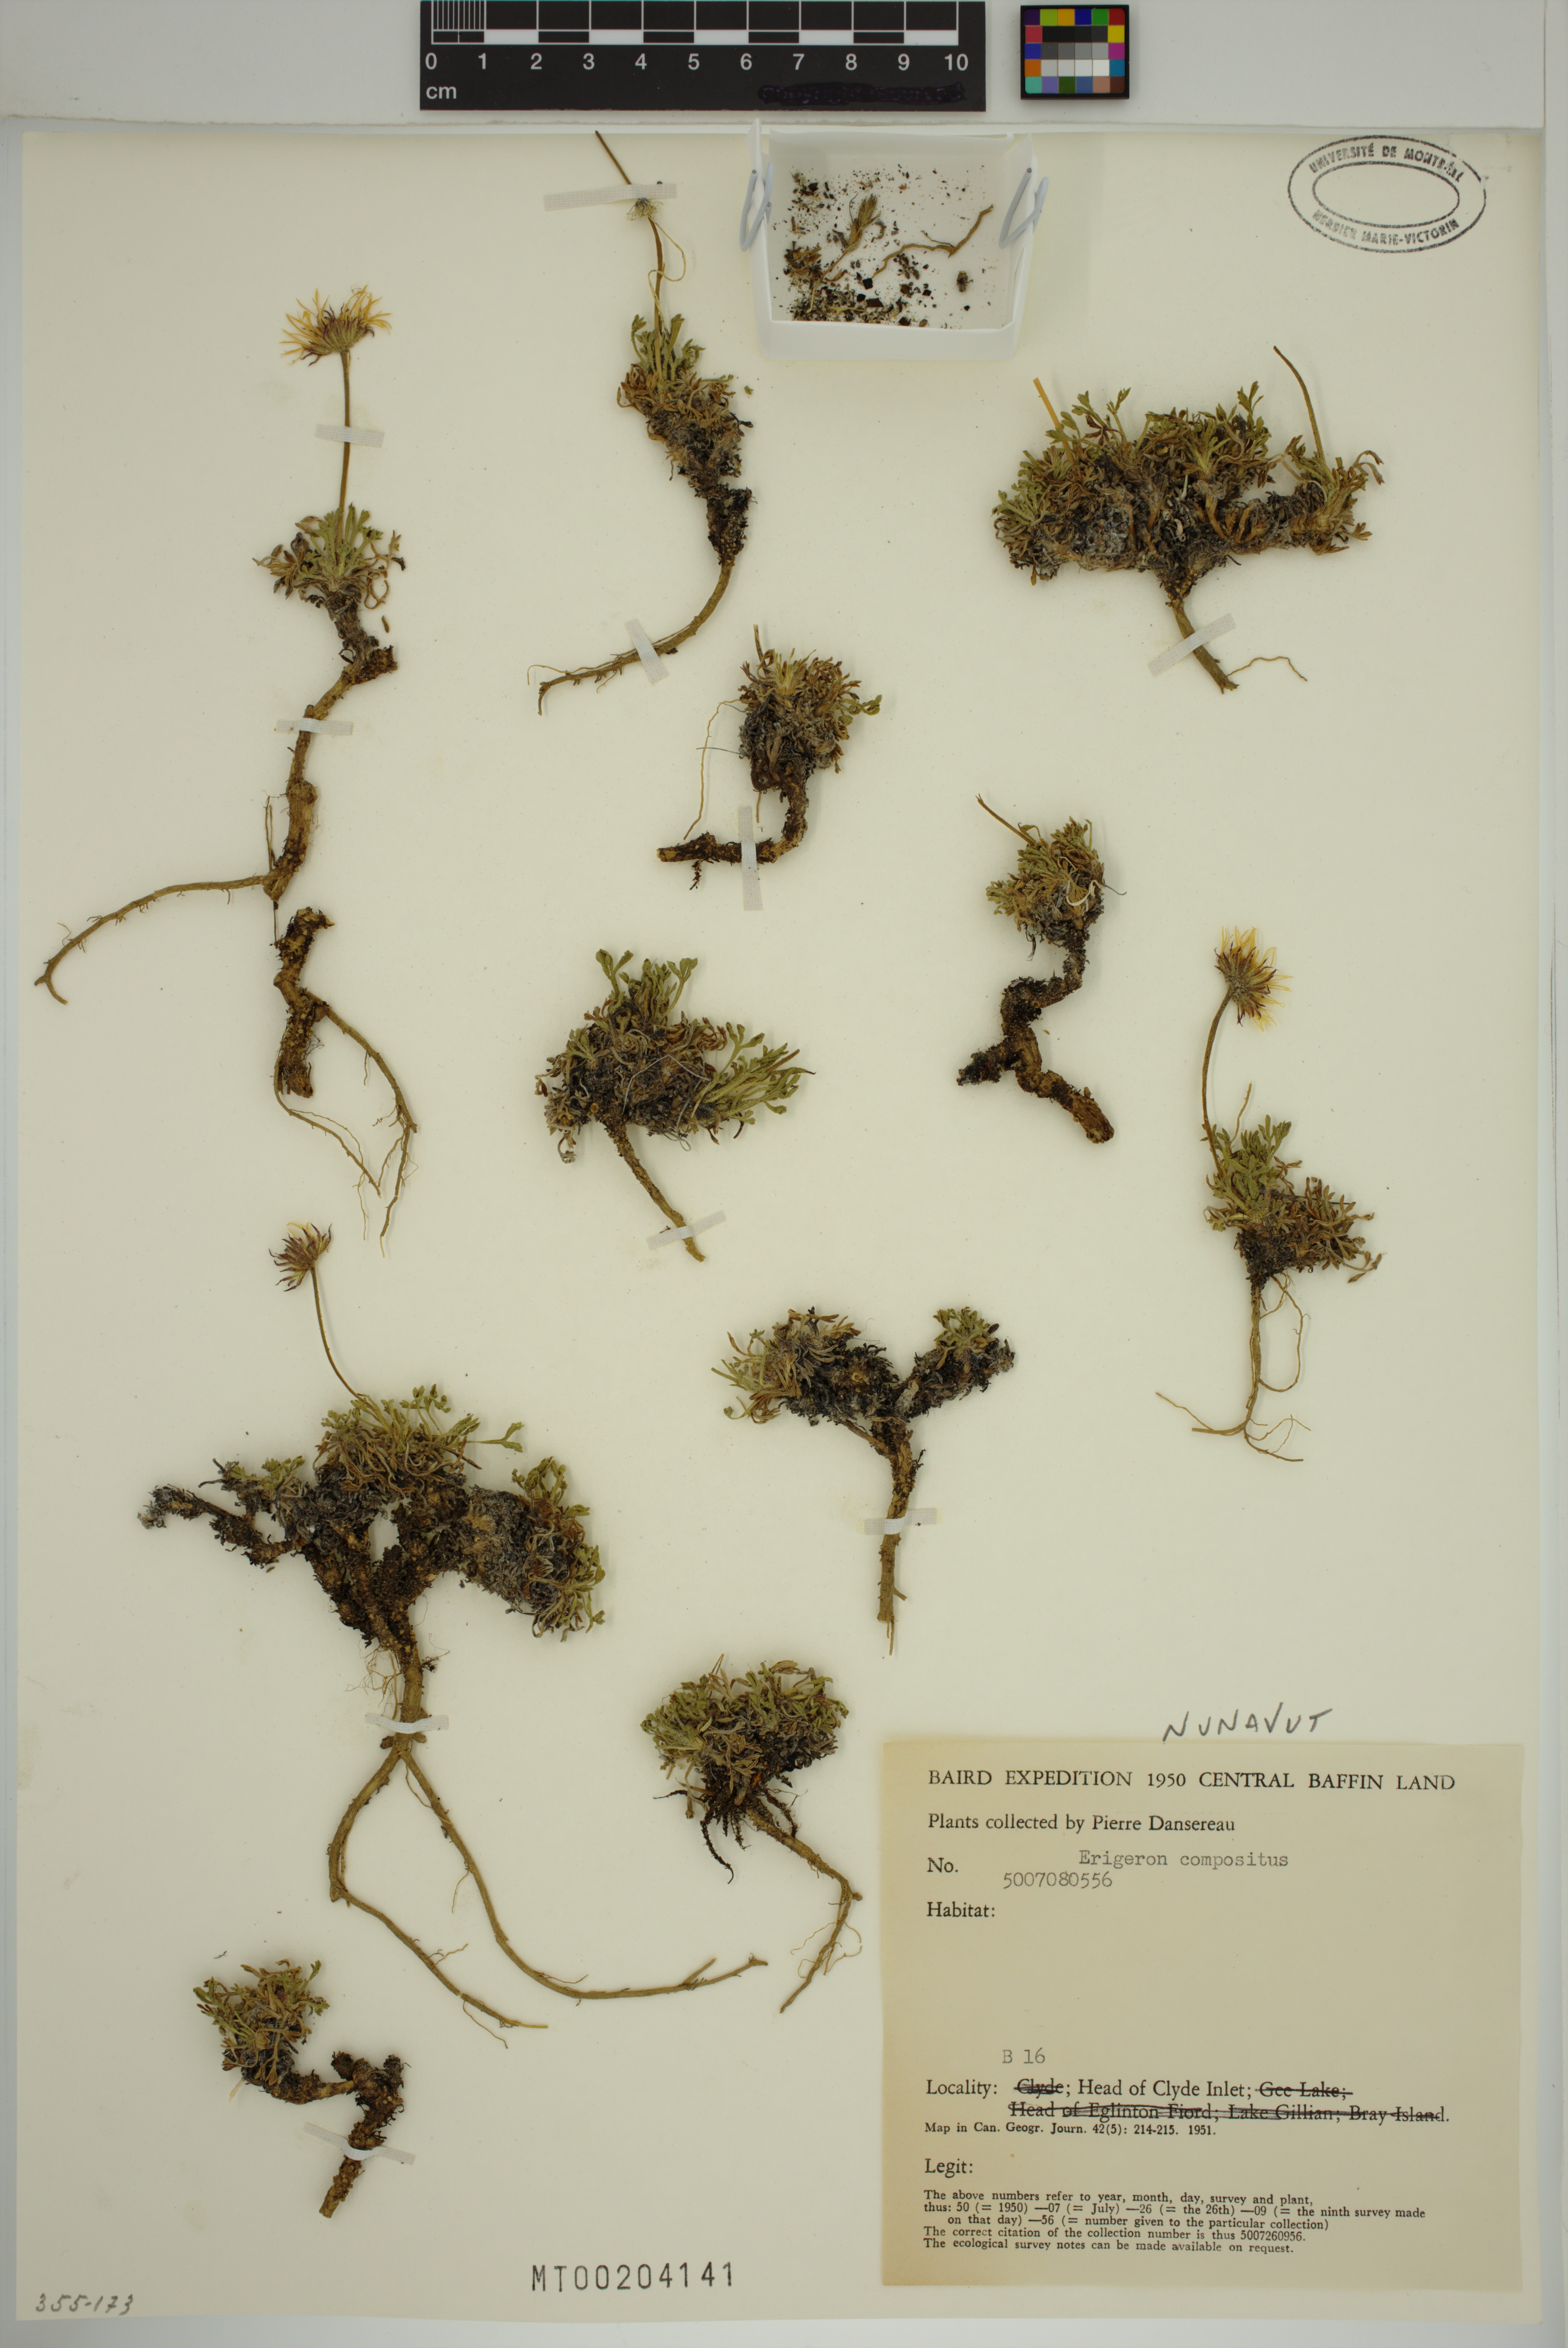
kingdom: Plantae
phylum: Tracheophyta
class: Magnoliopsida
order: Asterales
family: Asteraceae
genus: Erigeron
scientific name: Erigeron compositus
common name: Dwarf mountain fleabane
